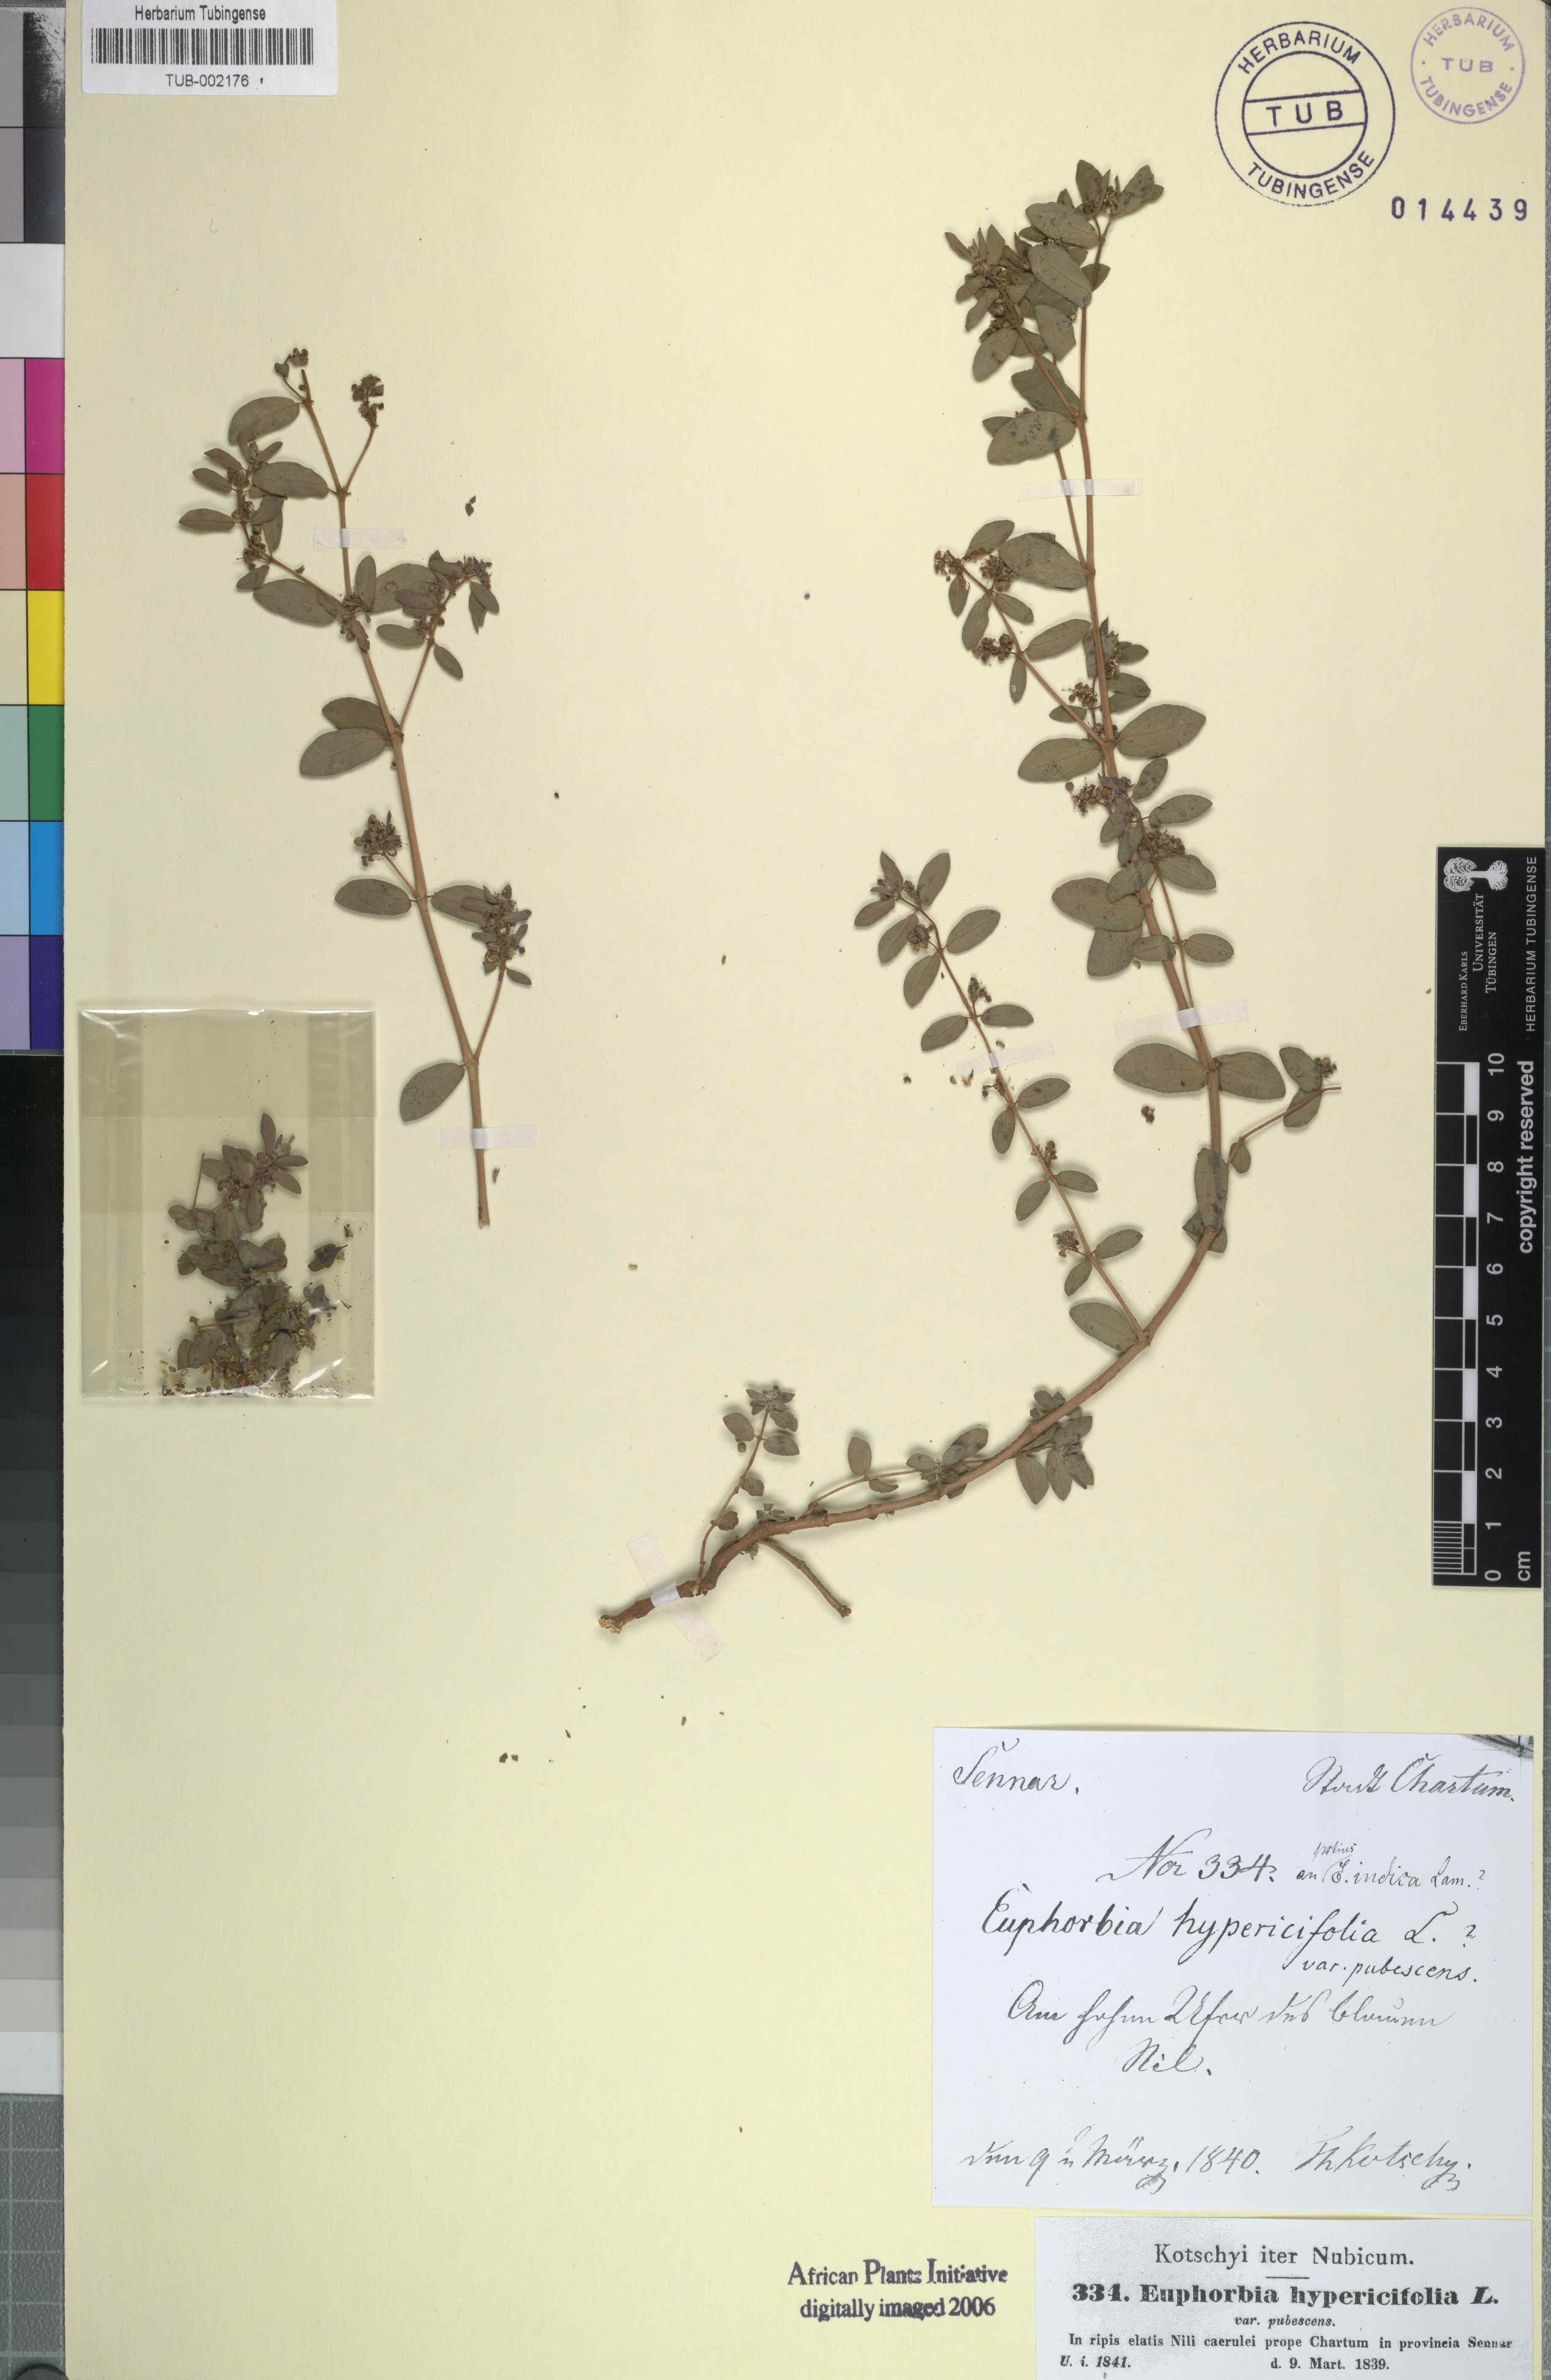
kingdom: Plantae
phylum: Tracheophyta
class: Magnoliopsida
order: Malpighiales
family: Euphorbiaceae
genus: Euphorbia
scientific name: Euphorbia indica
